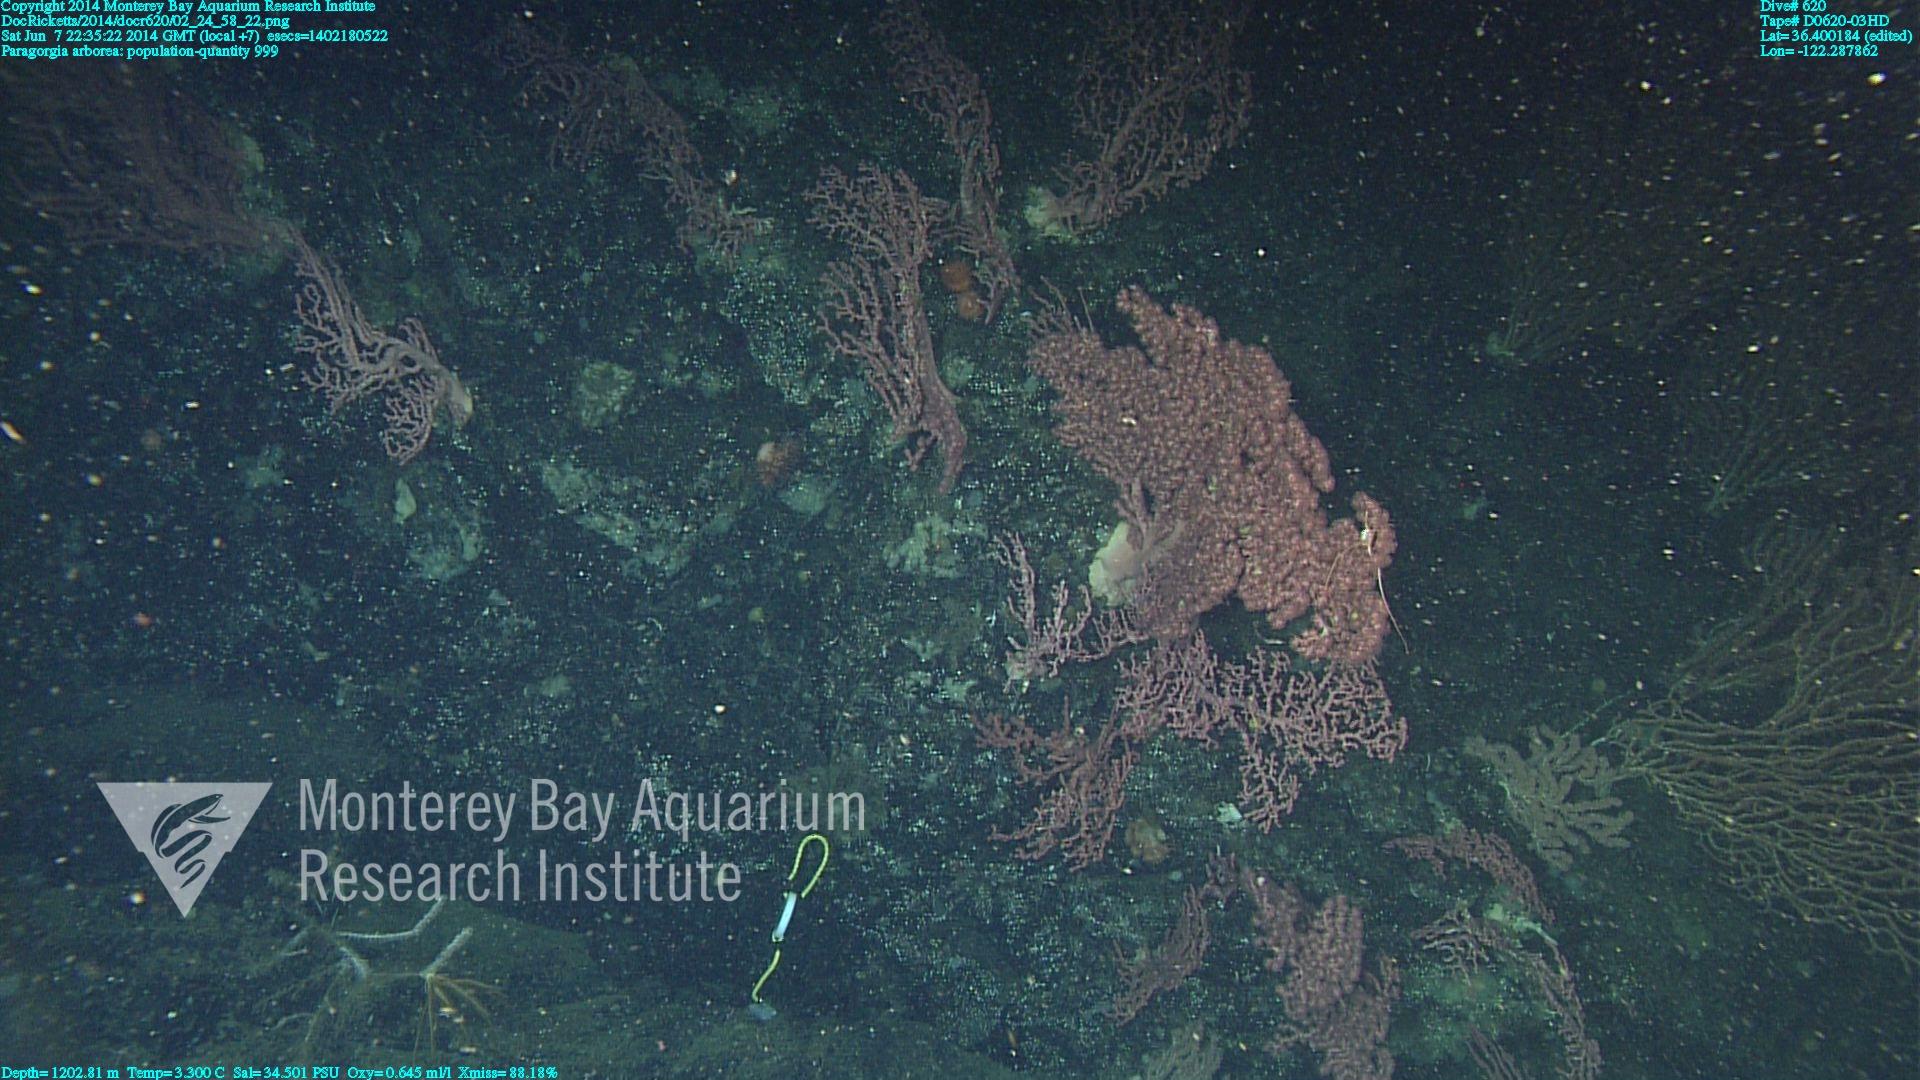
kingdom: Animalia
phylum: Cnidaria
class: Anthozoa
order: Scleralcyonacea
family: Coralliidae
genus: Paragorgia
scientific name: Paragorgia arborea
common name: Bubble gum coral
